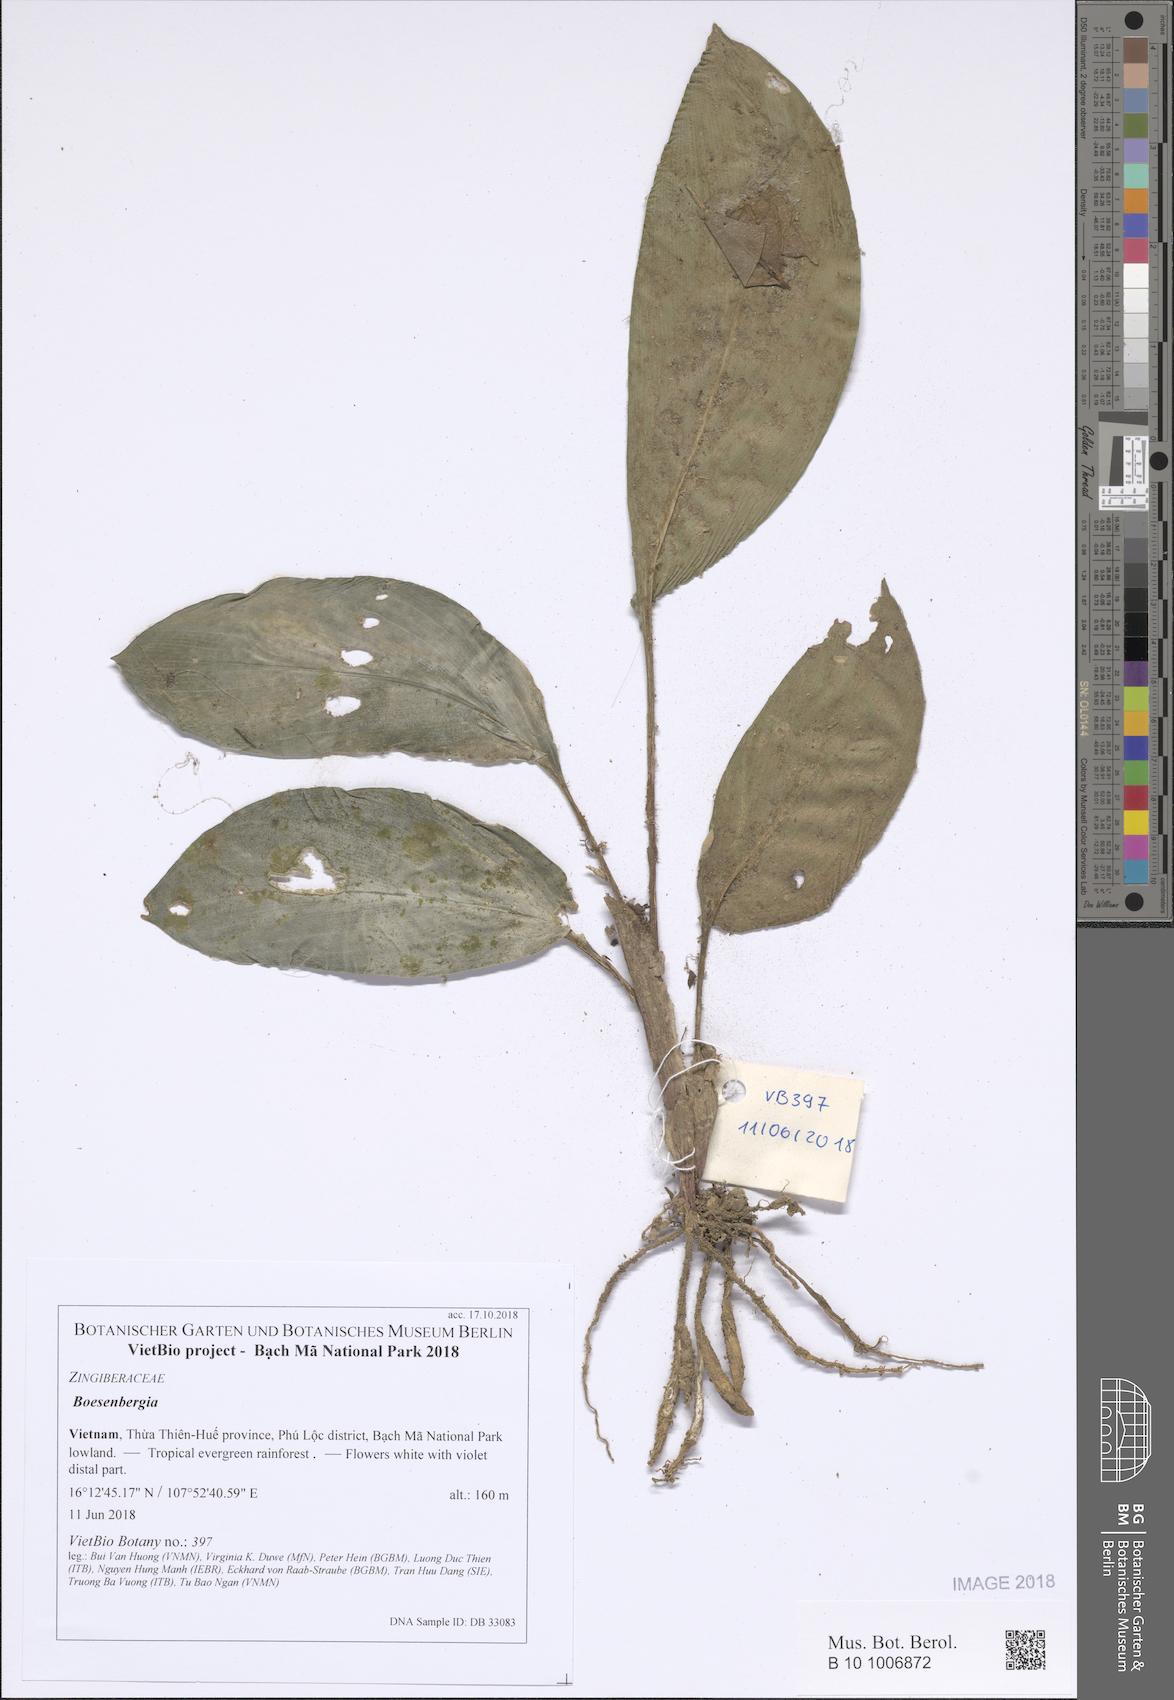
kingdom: Plantae
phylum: Tracheophyta
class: Liliopsida
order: Zingiberales
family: Zingiberaceae
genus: Boesenbergia
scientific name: Boesenbergia
